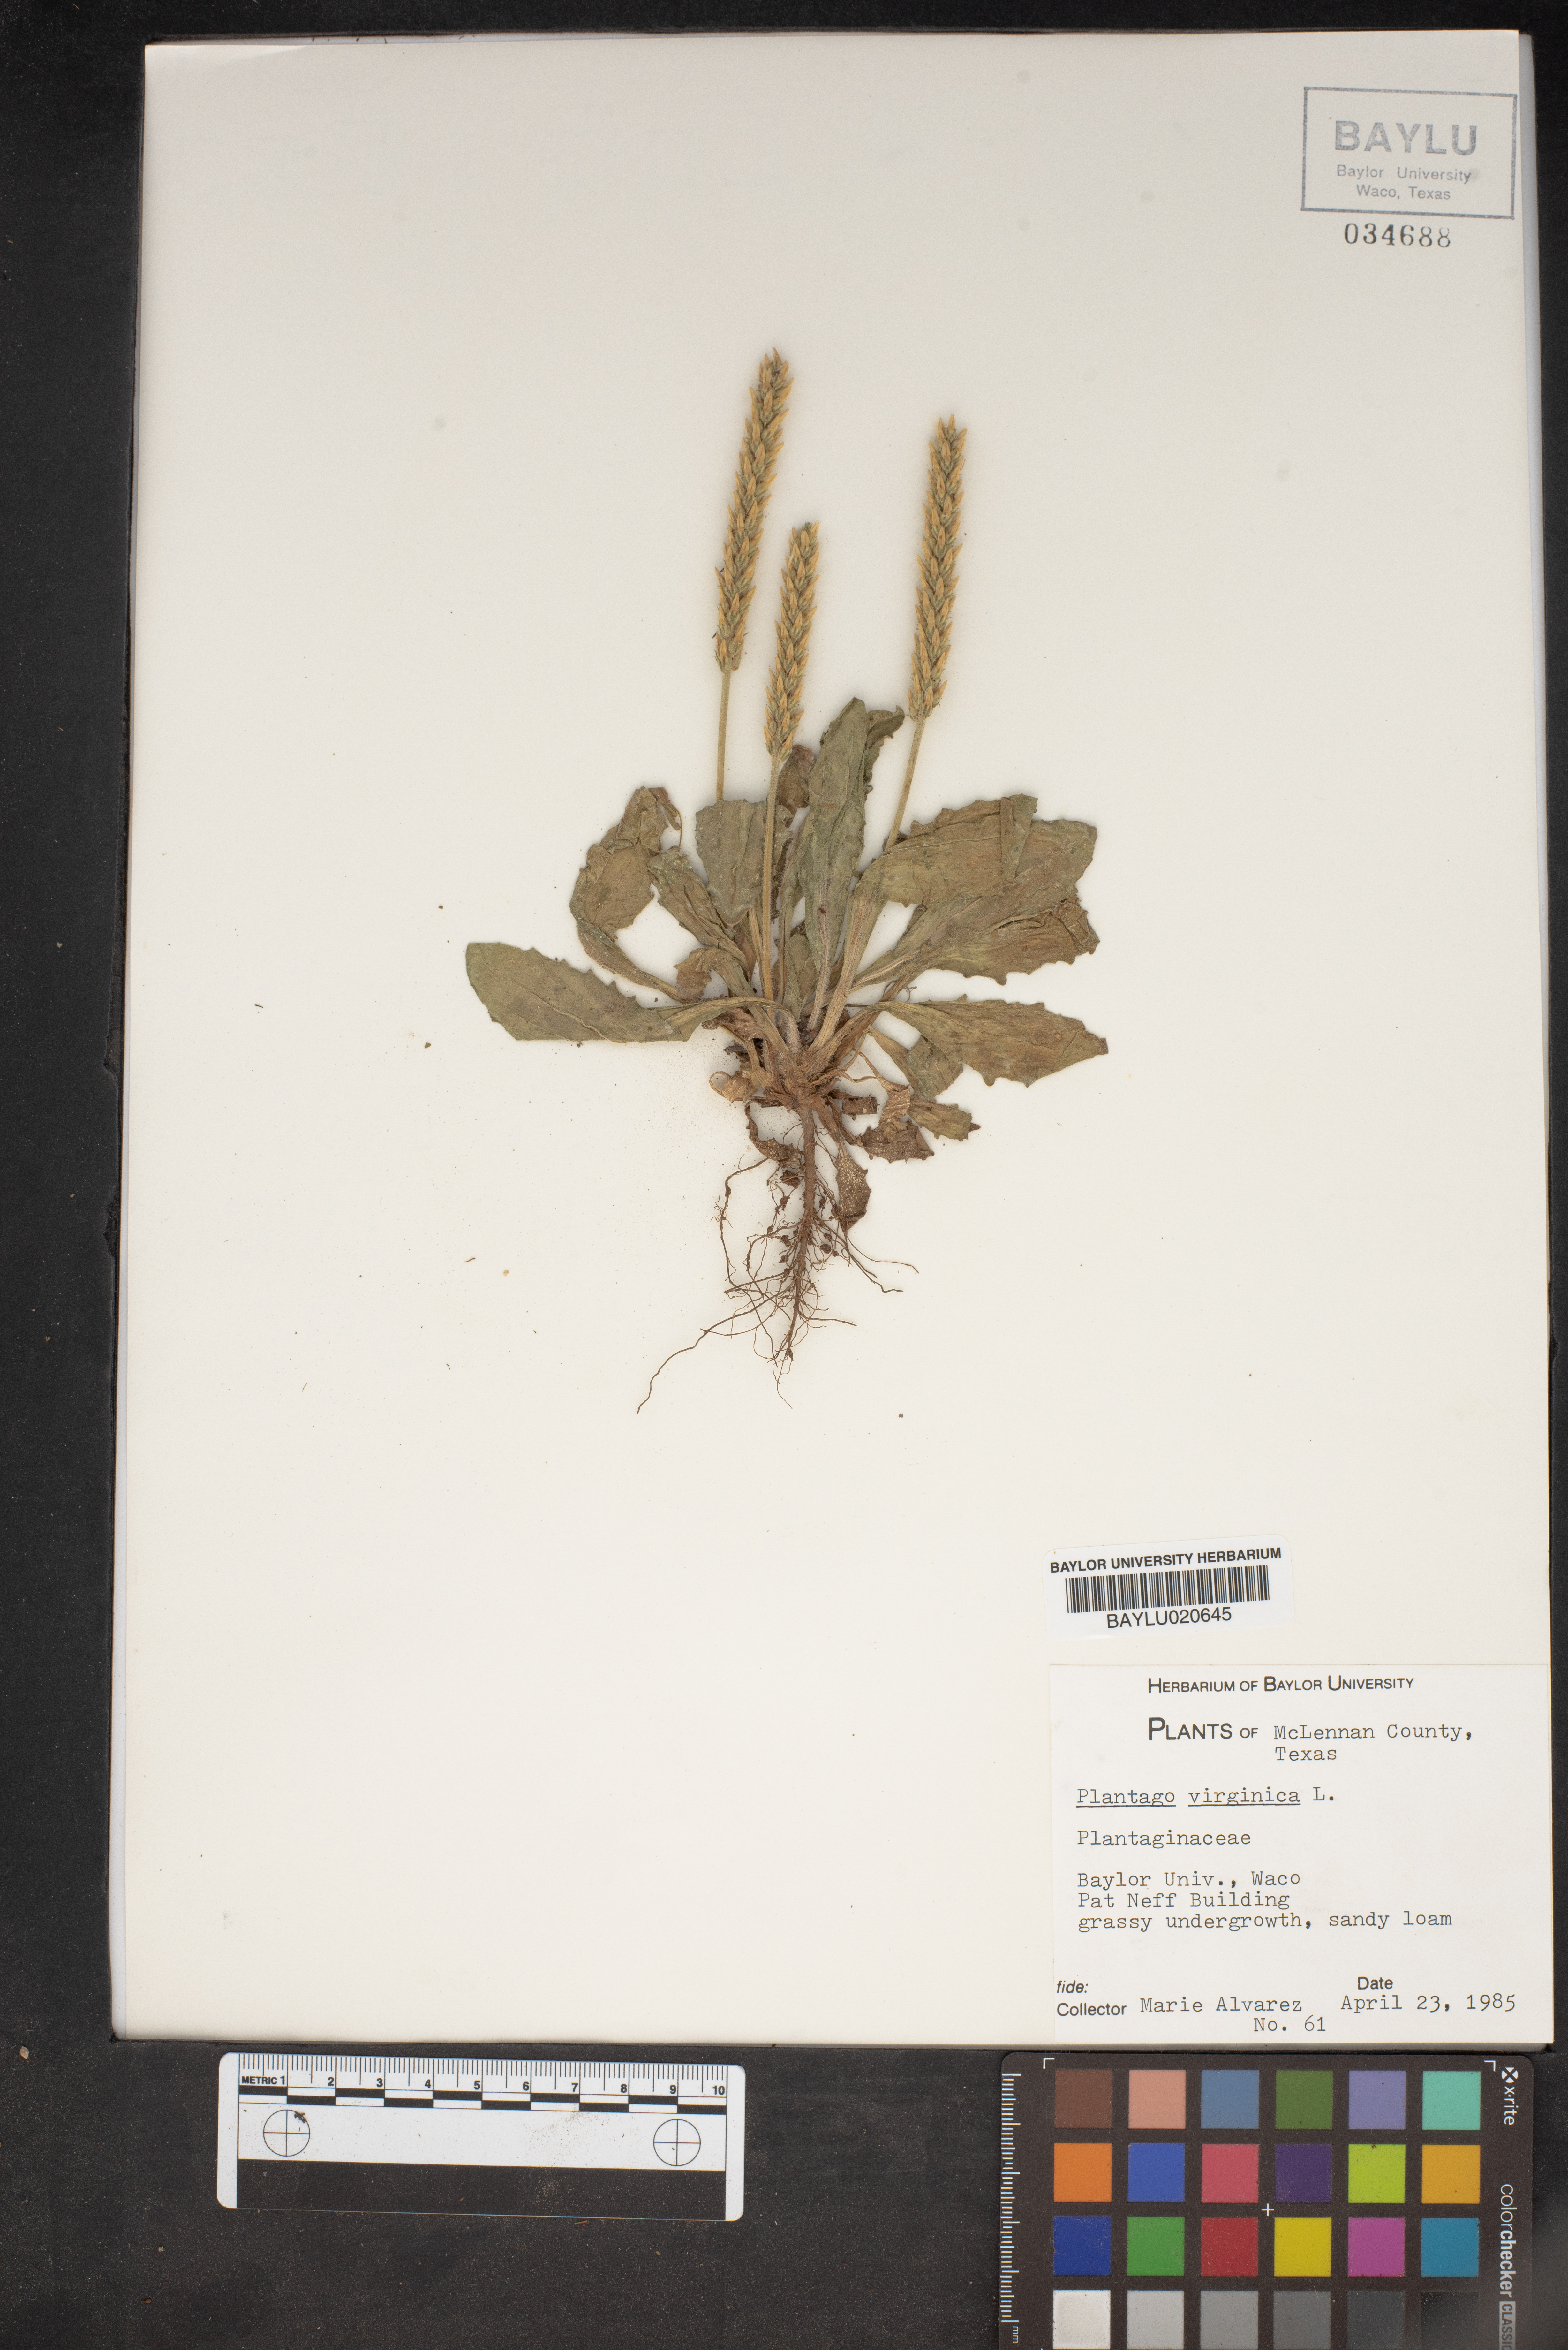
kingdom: Plantae
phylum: Tracheophyta
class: Magnoliopsida
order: Lamiales
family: Plantaginaceae
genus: Plantago
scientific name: Plantago virginica
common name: Hoary plantain
